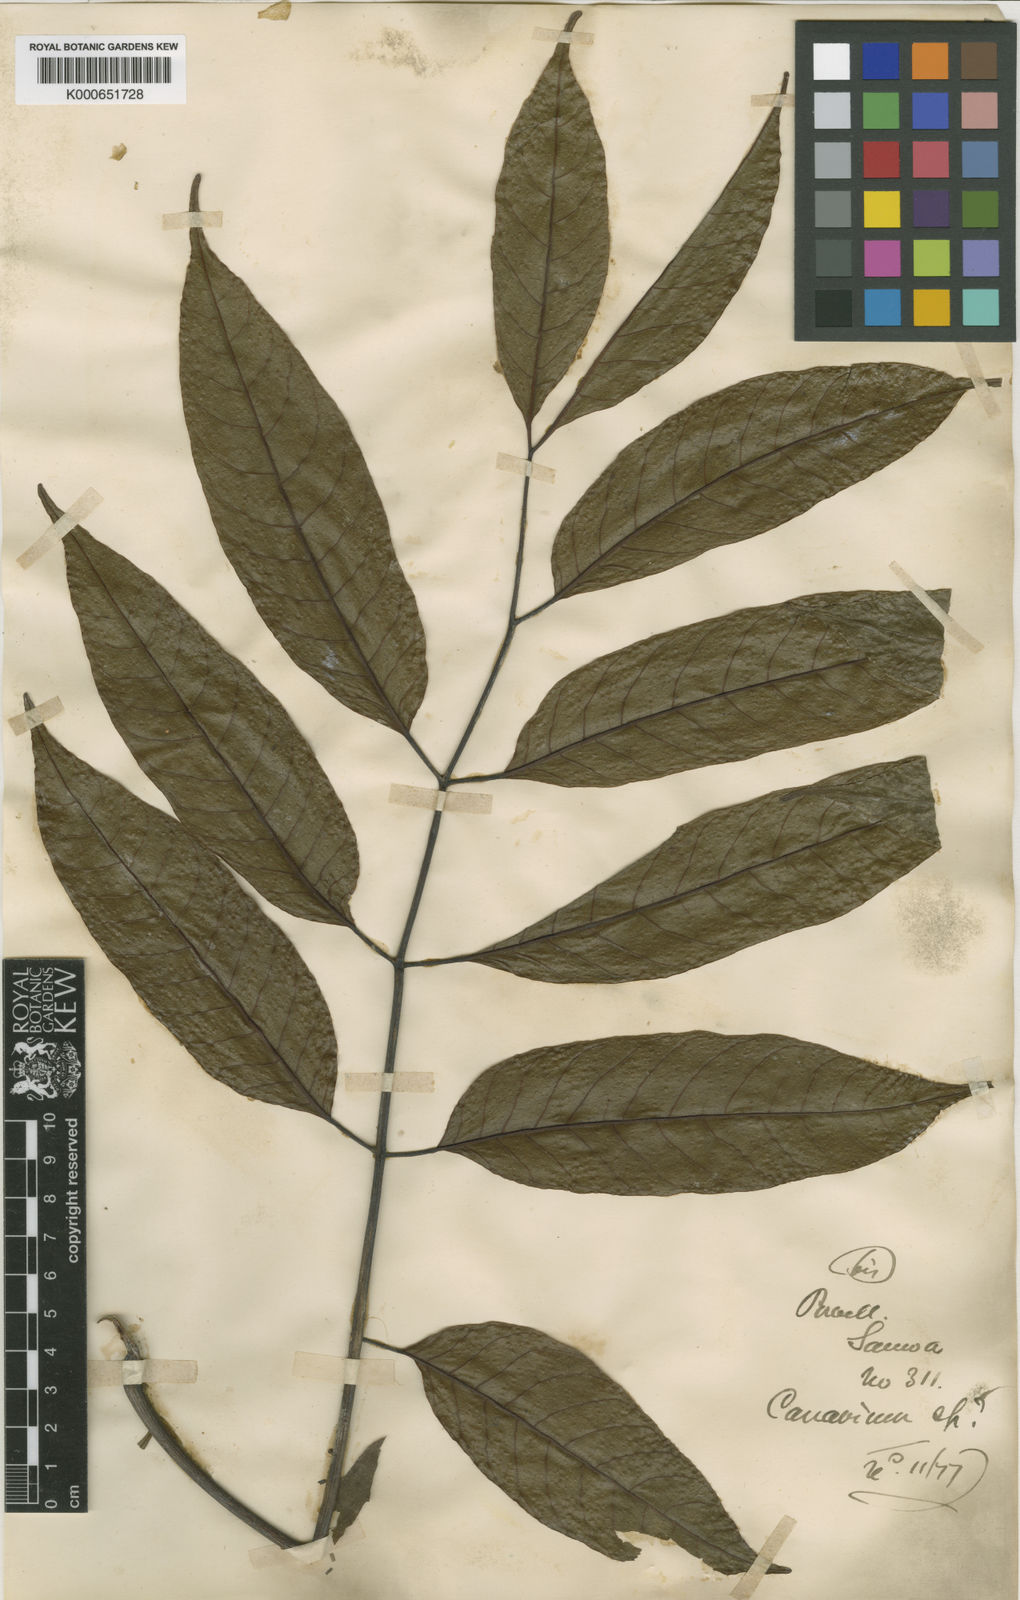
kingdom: Plantae
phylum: Tracheophyta
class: Magnoliopsida
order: Sapindales
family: Burseraceae
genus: Canarium
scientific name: Canarium vitiense
